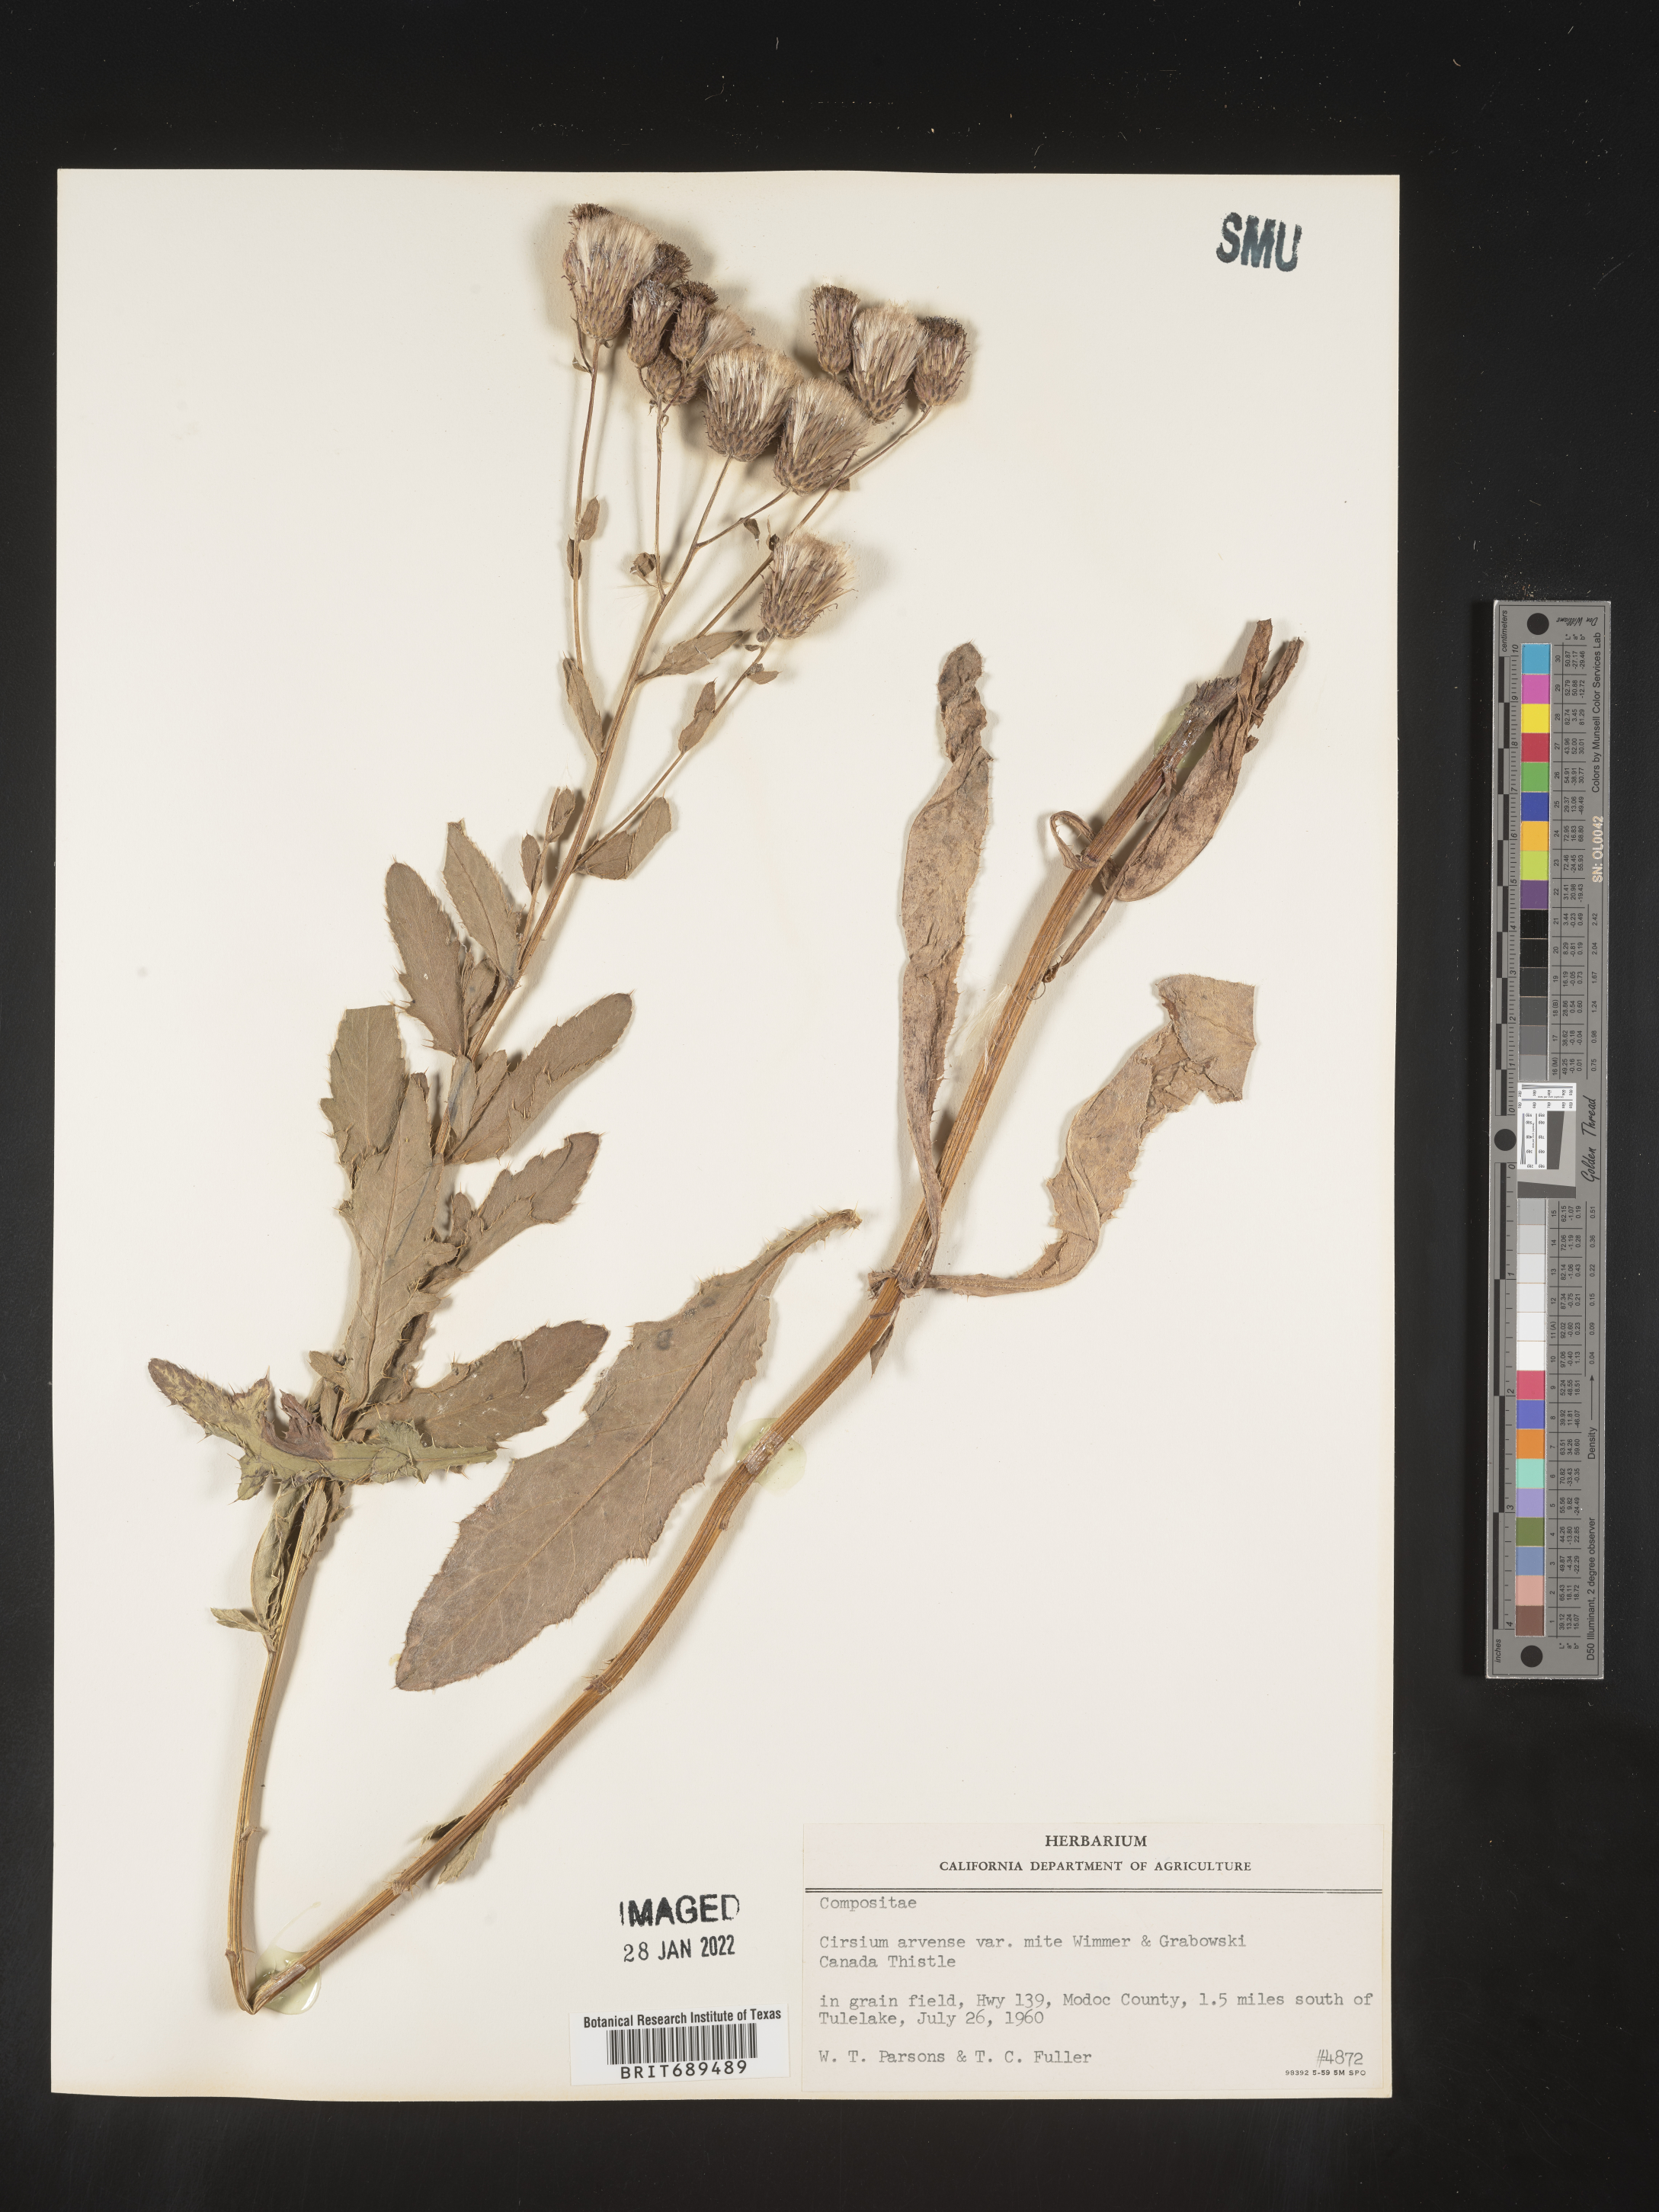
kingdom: Plantae
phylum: Tracheophyta
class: Magnoliopsida
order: Asterales
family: Asteraceae
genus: Cirsium
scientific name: Cirsium arvense
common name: Creeping thistle
